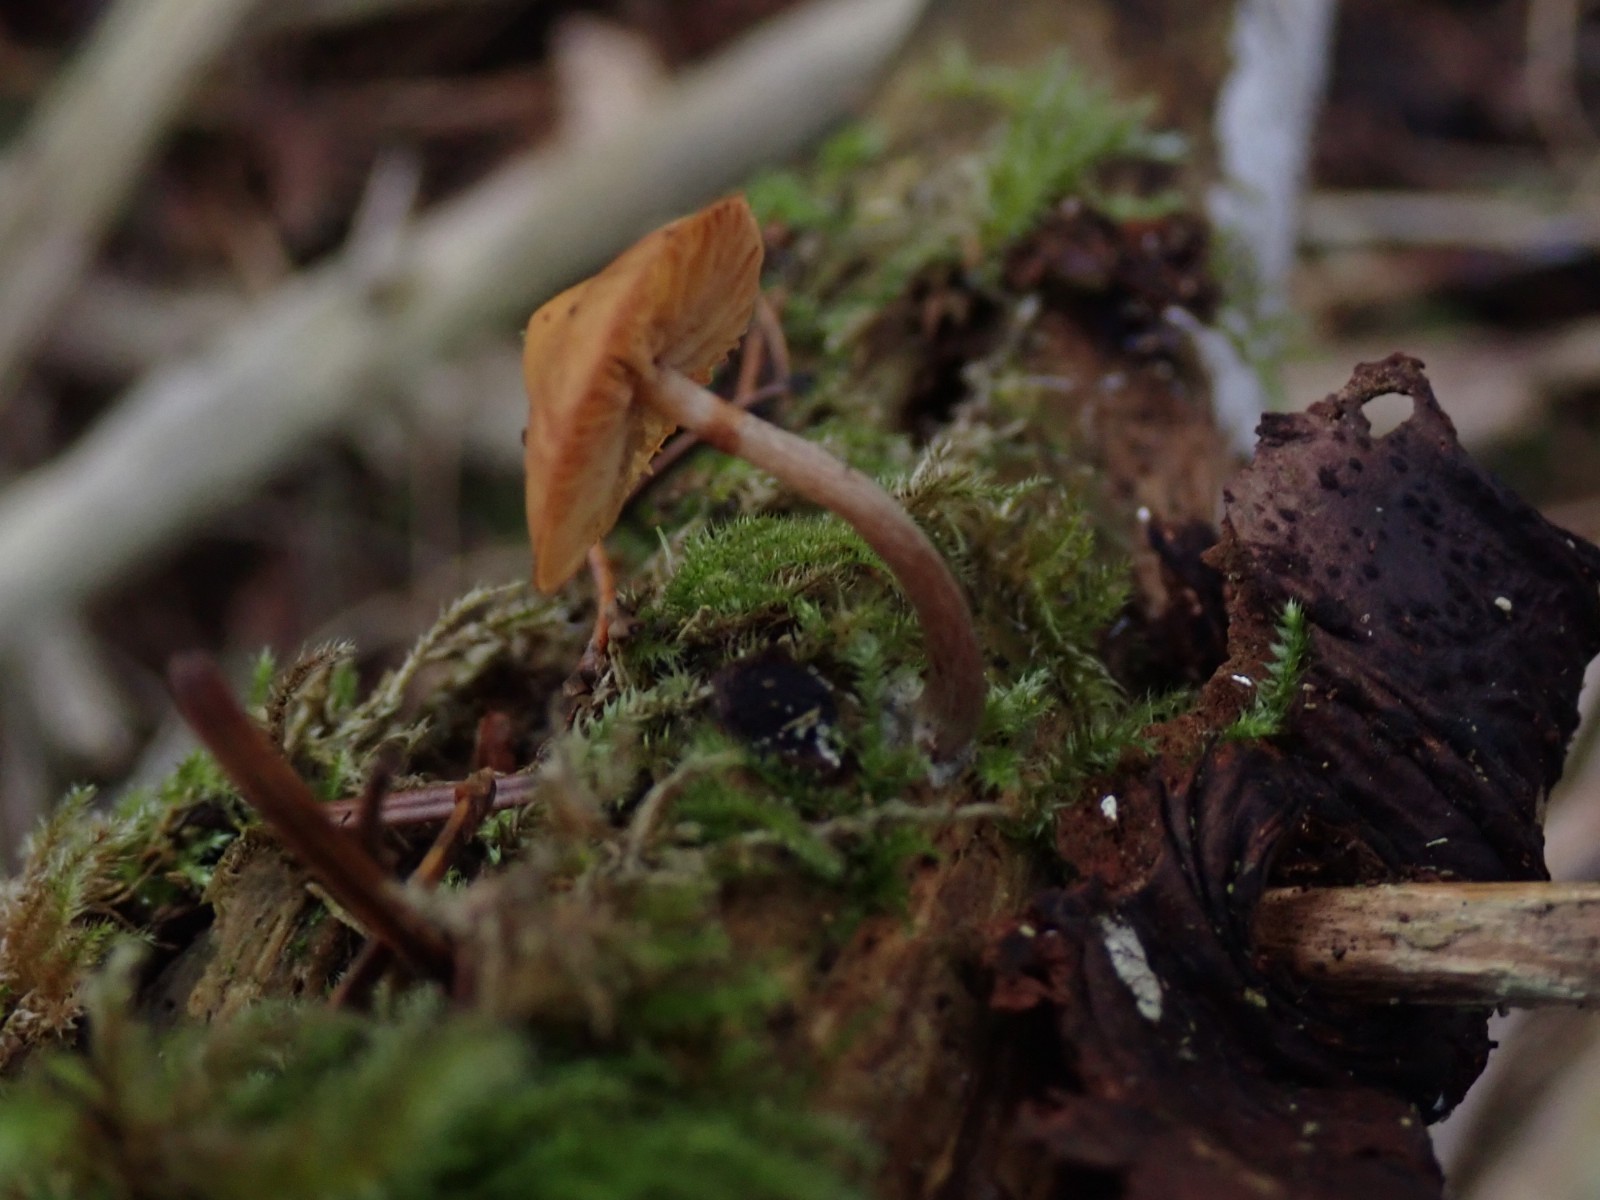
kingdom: Fungi
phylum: Basidiomycota
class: Agaricomycetes
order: Agaricales
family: Hymenogastraceae
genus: Galerina
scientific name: Galerina marginata
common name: randbæltet hjelmhat
